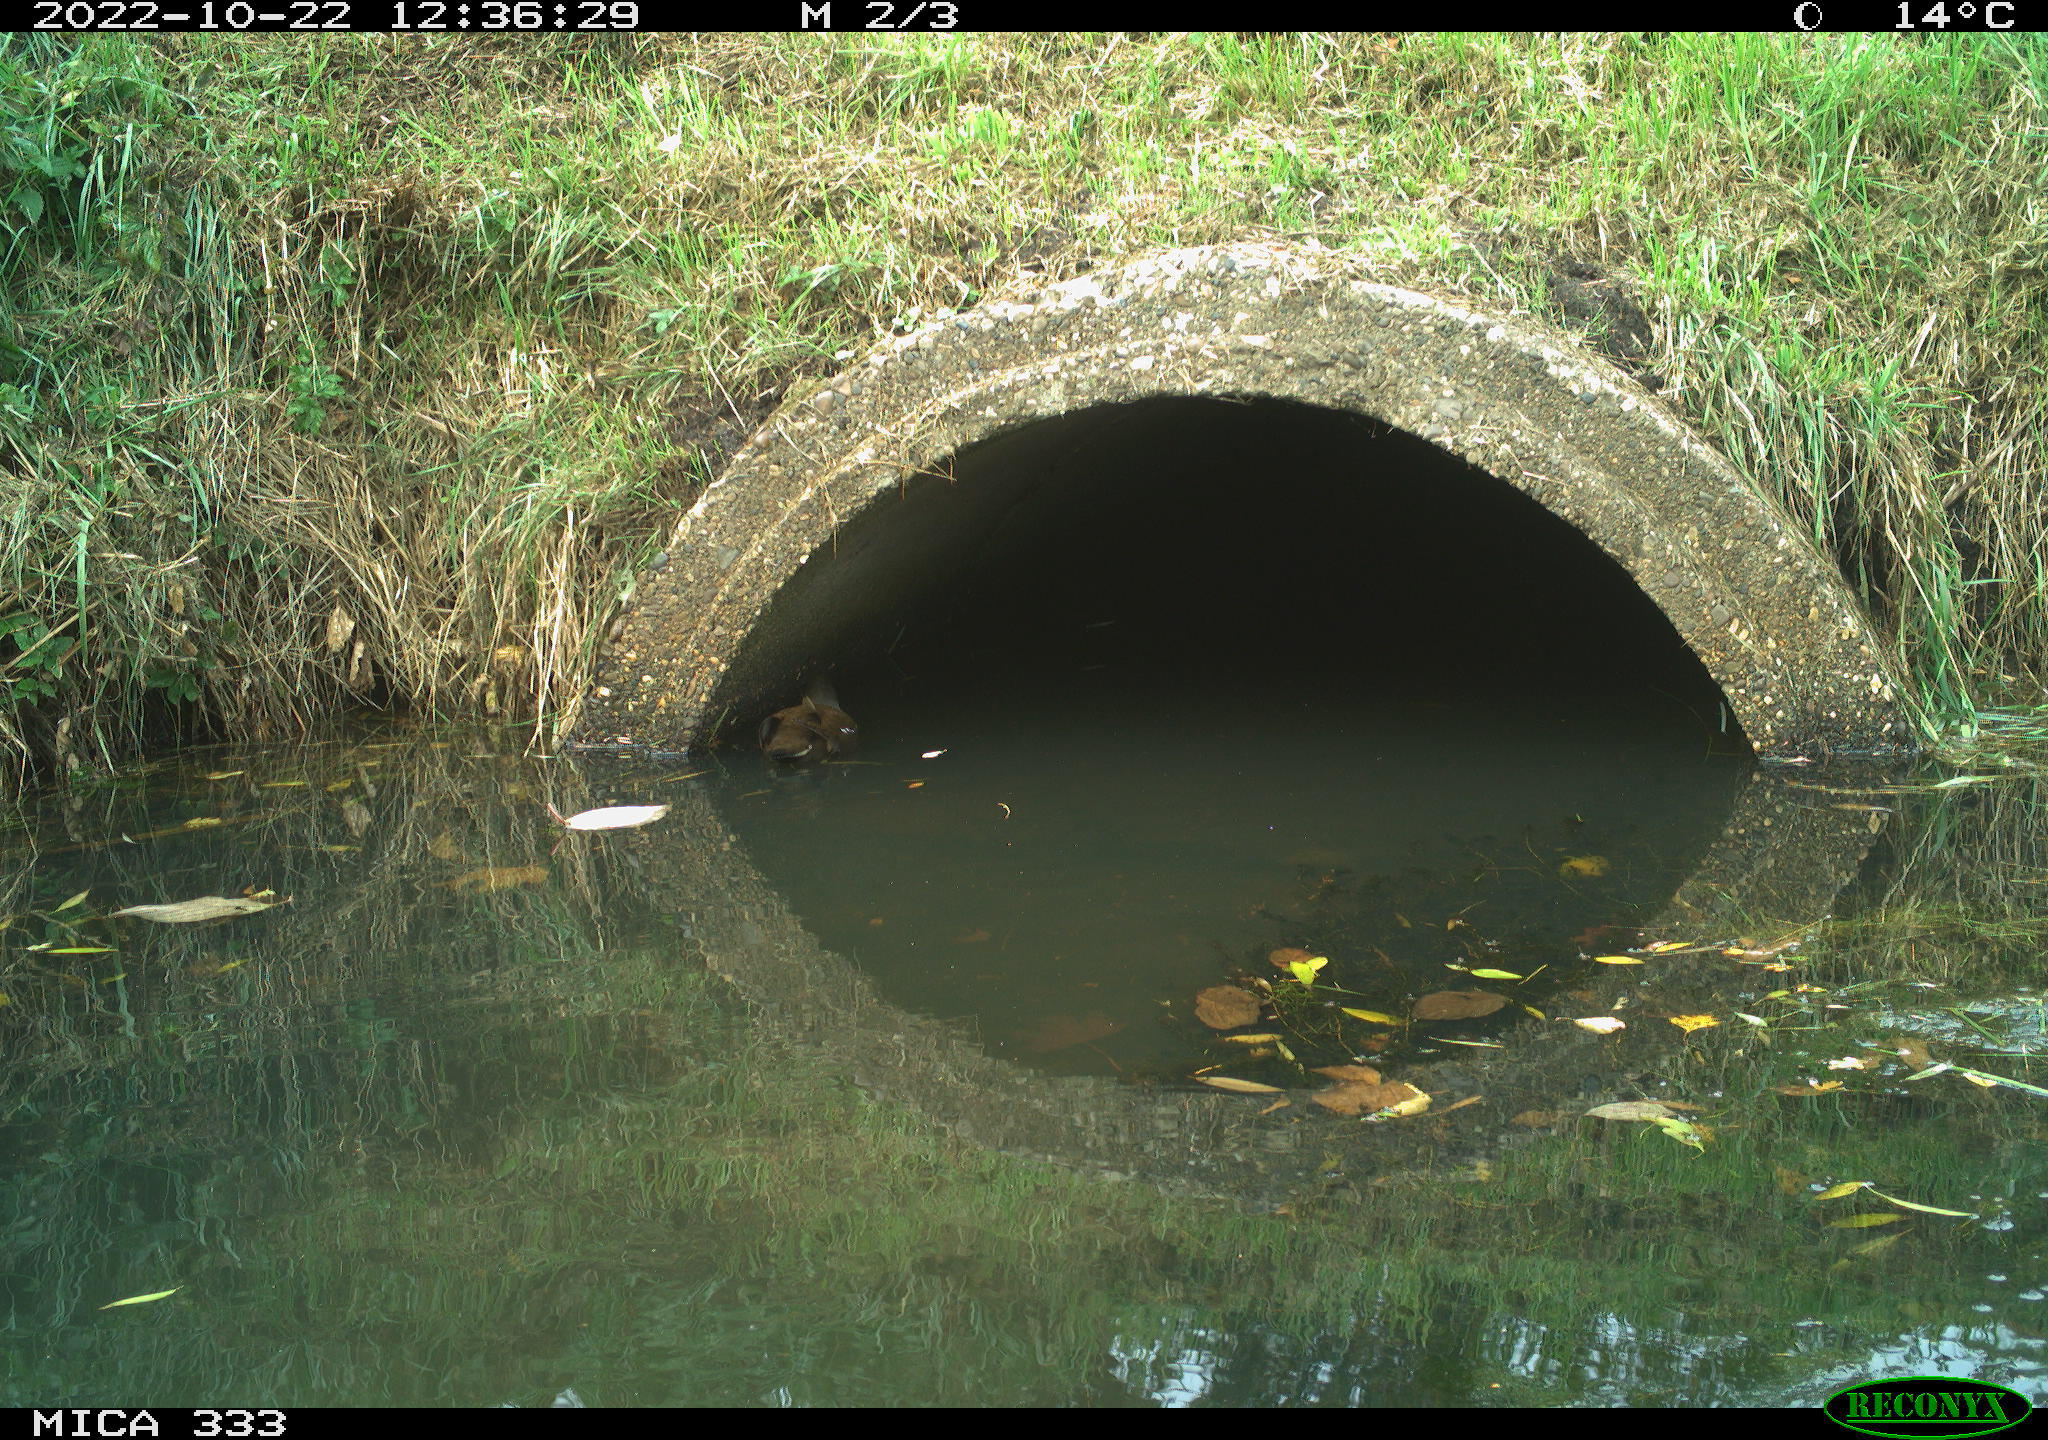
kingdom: Animalia
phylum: Chordata
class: Aves
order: Gruiformes
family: Rallidae
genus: Gallinula
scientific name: Gallinula chloropus
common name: Common moorhen
